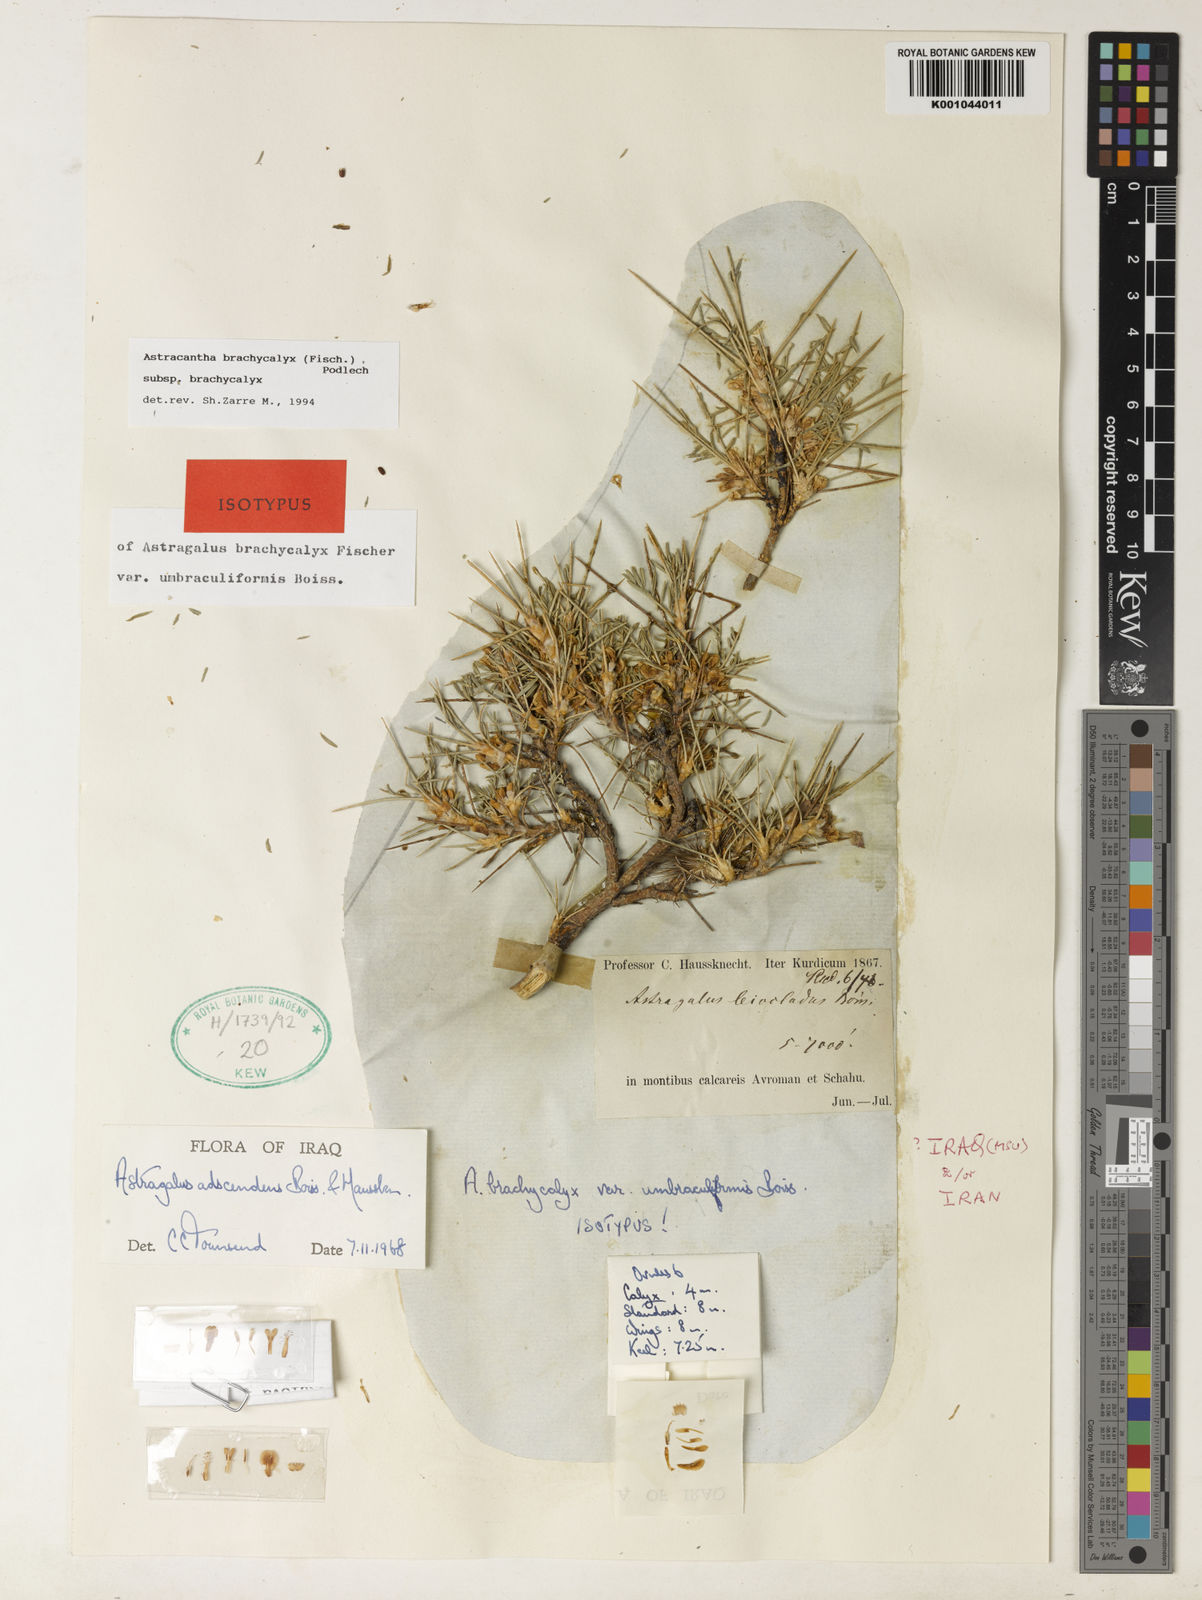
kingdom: Plantae
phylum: Tracheophyta
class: Magnoliopsida
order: Fabales
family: Fabaceae
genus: Astragalus
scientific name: Astragalus brachycalyx
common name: Persian manna
